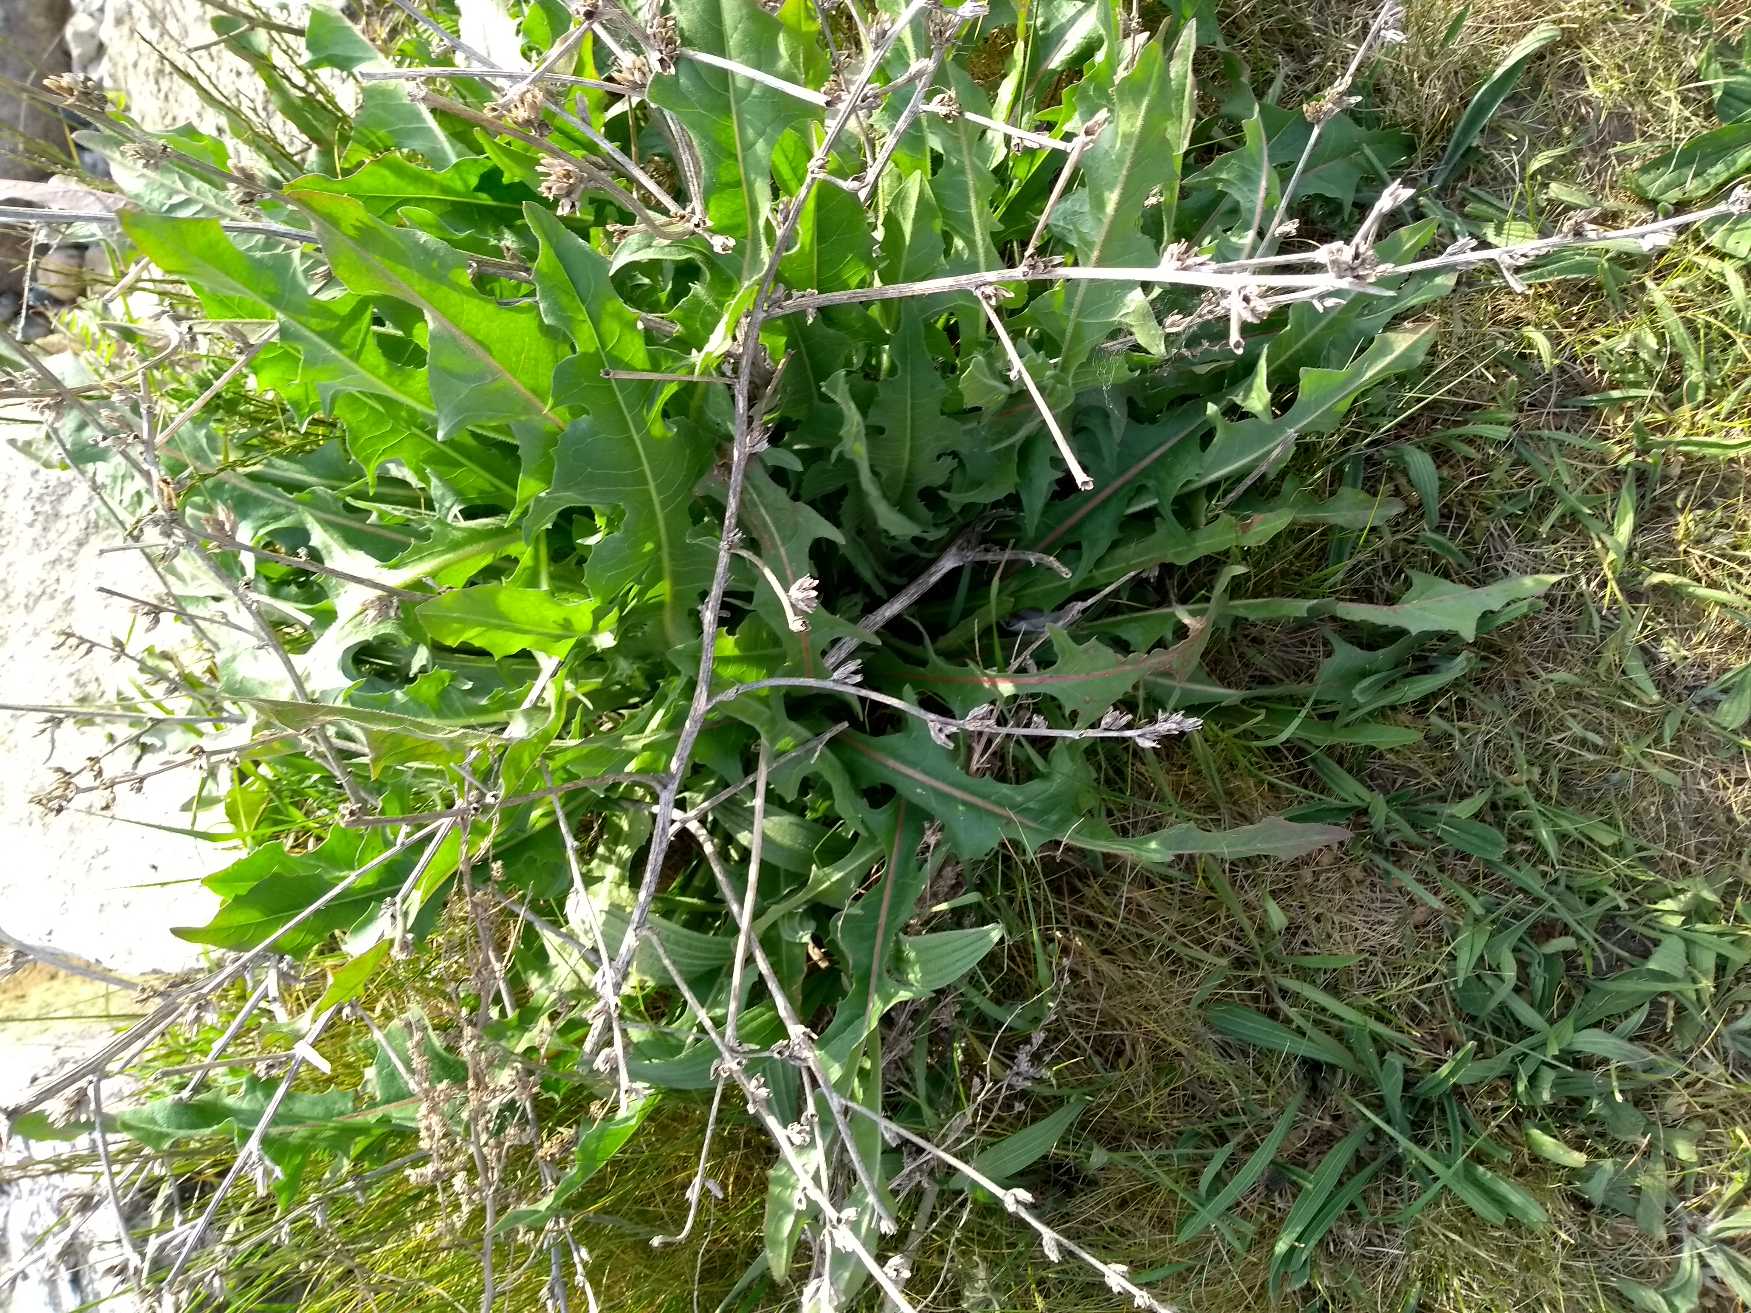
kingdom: Plantae
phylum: Tracheophyta
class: Magnoliopsida
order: Asterales
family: Asteraceae
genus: Cichorium
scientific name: Cichorium intybus
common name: Cikorie
